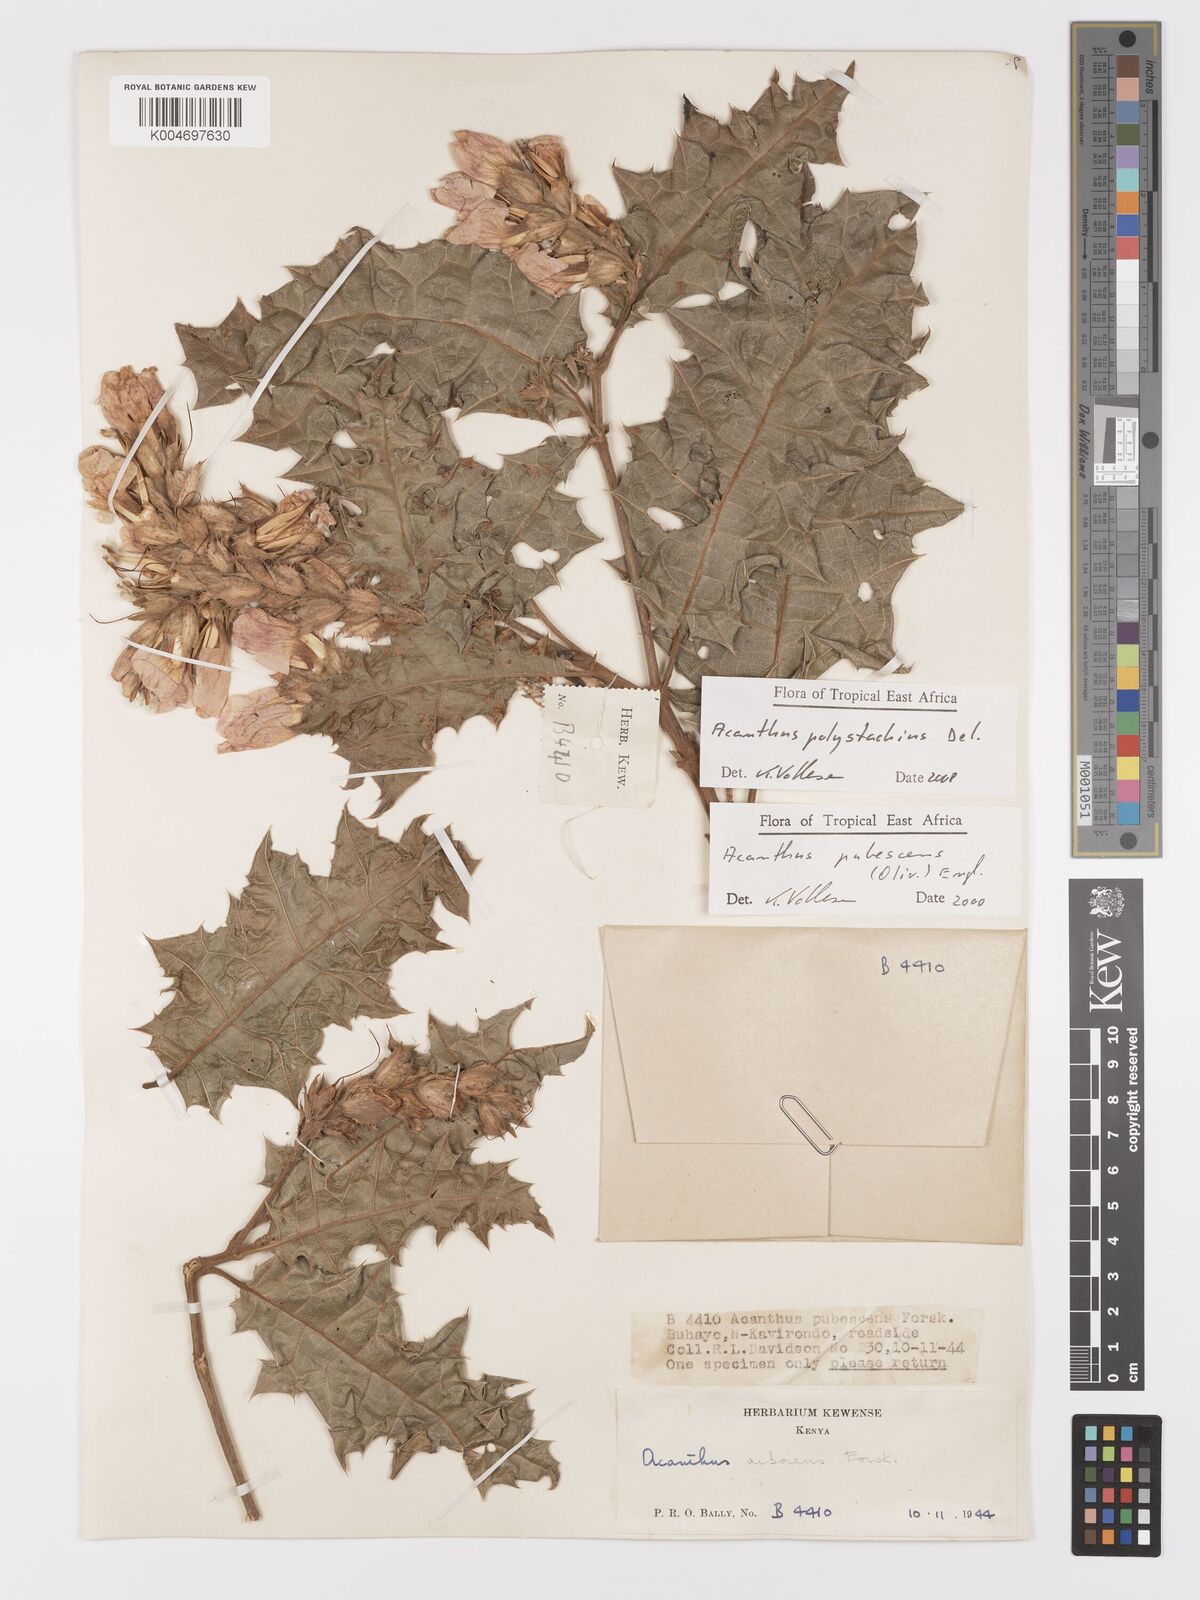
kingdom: Plantae
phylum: Tracheophyta
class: Magnoliopsida
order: Lamiales
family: Acanthaceae
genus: Acanthus
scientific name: Acanthus polystachyus
